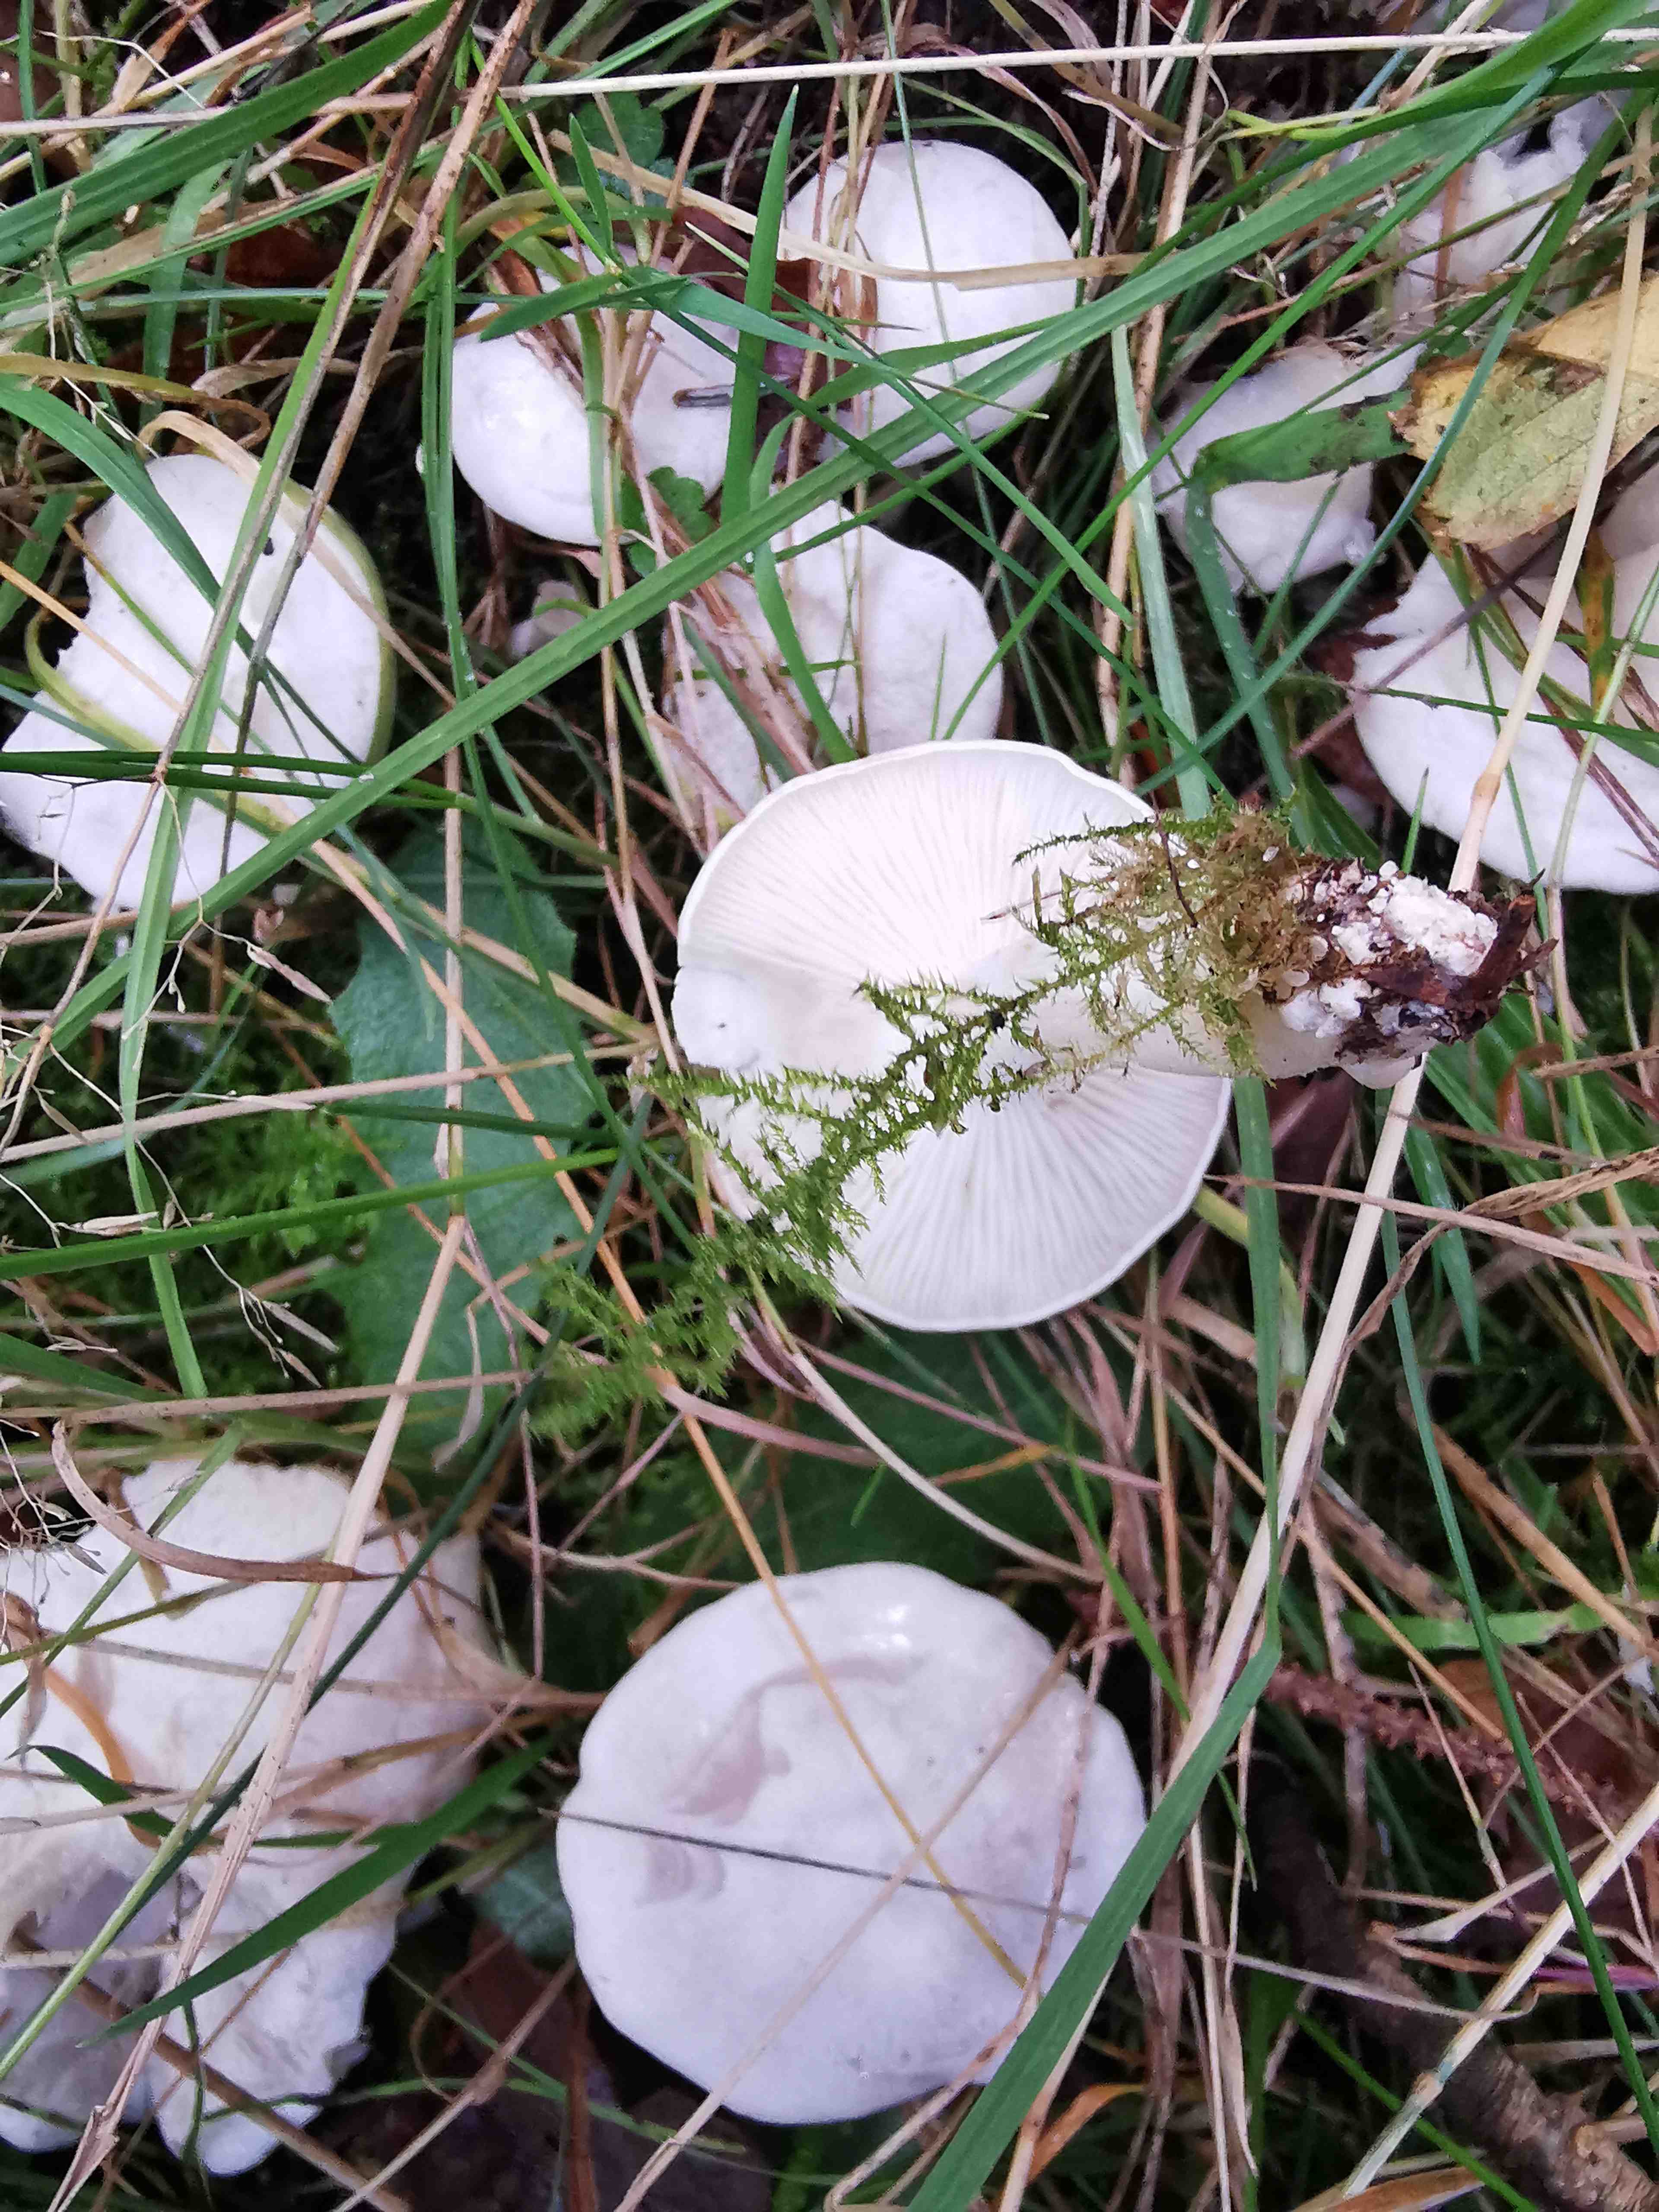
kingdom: Fungi
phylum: Basidiomycota
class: Agaricomycetes
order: Agaricales
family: Tricholomataceae
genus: Clitocybe
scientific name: Clitocybe
